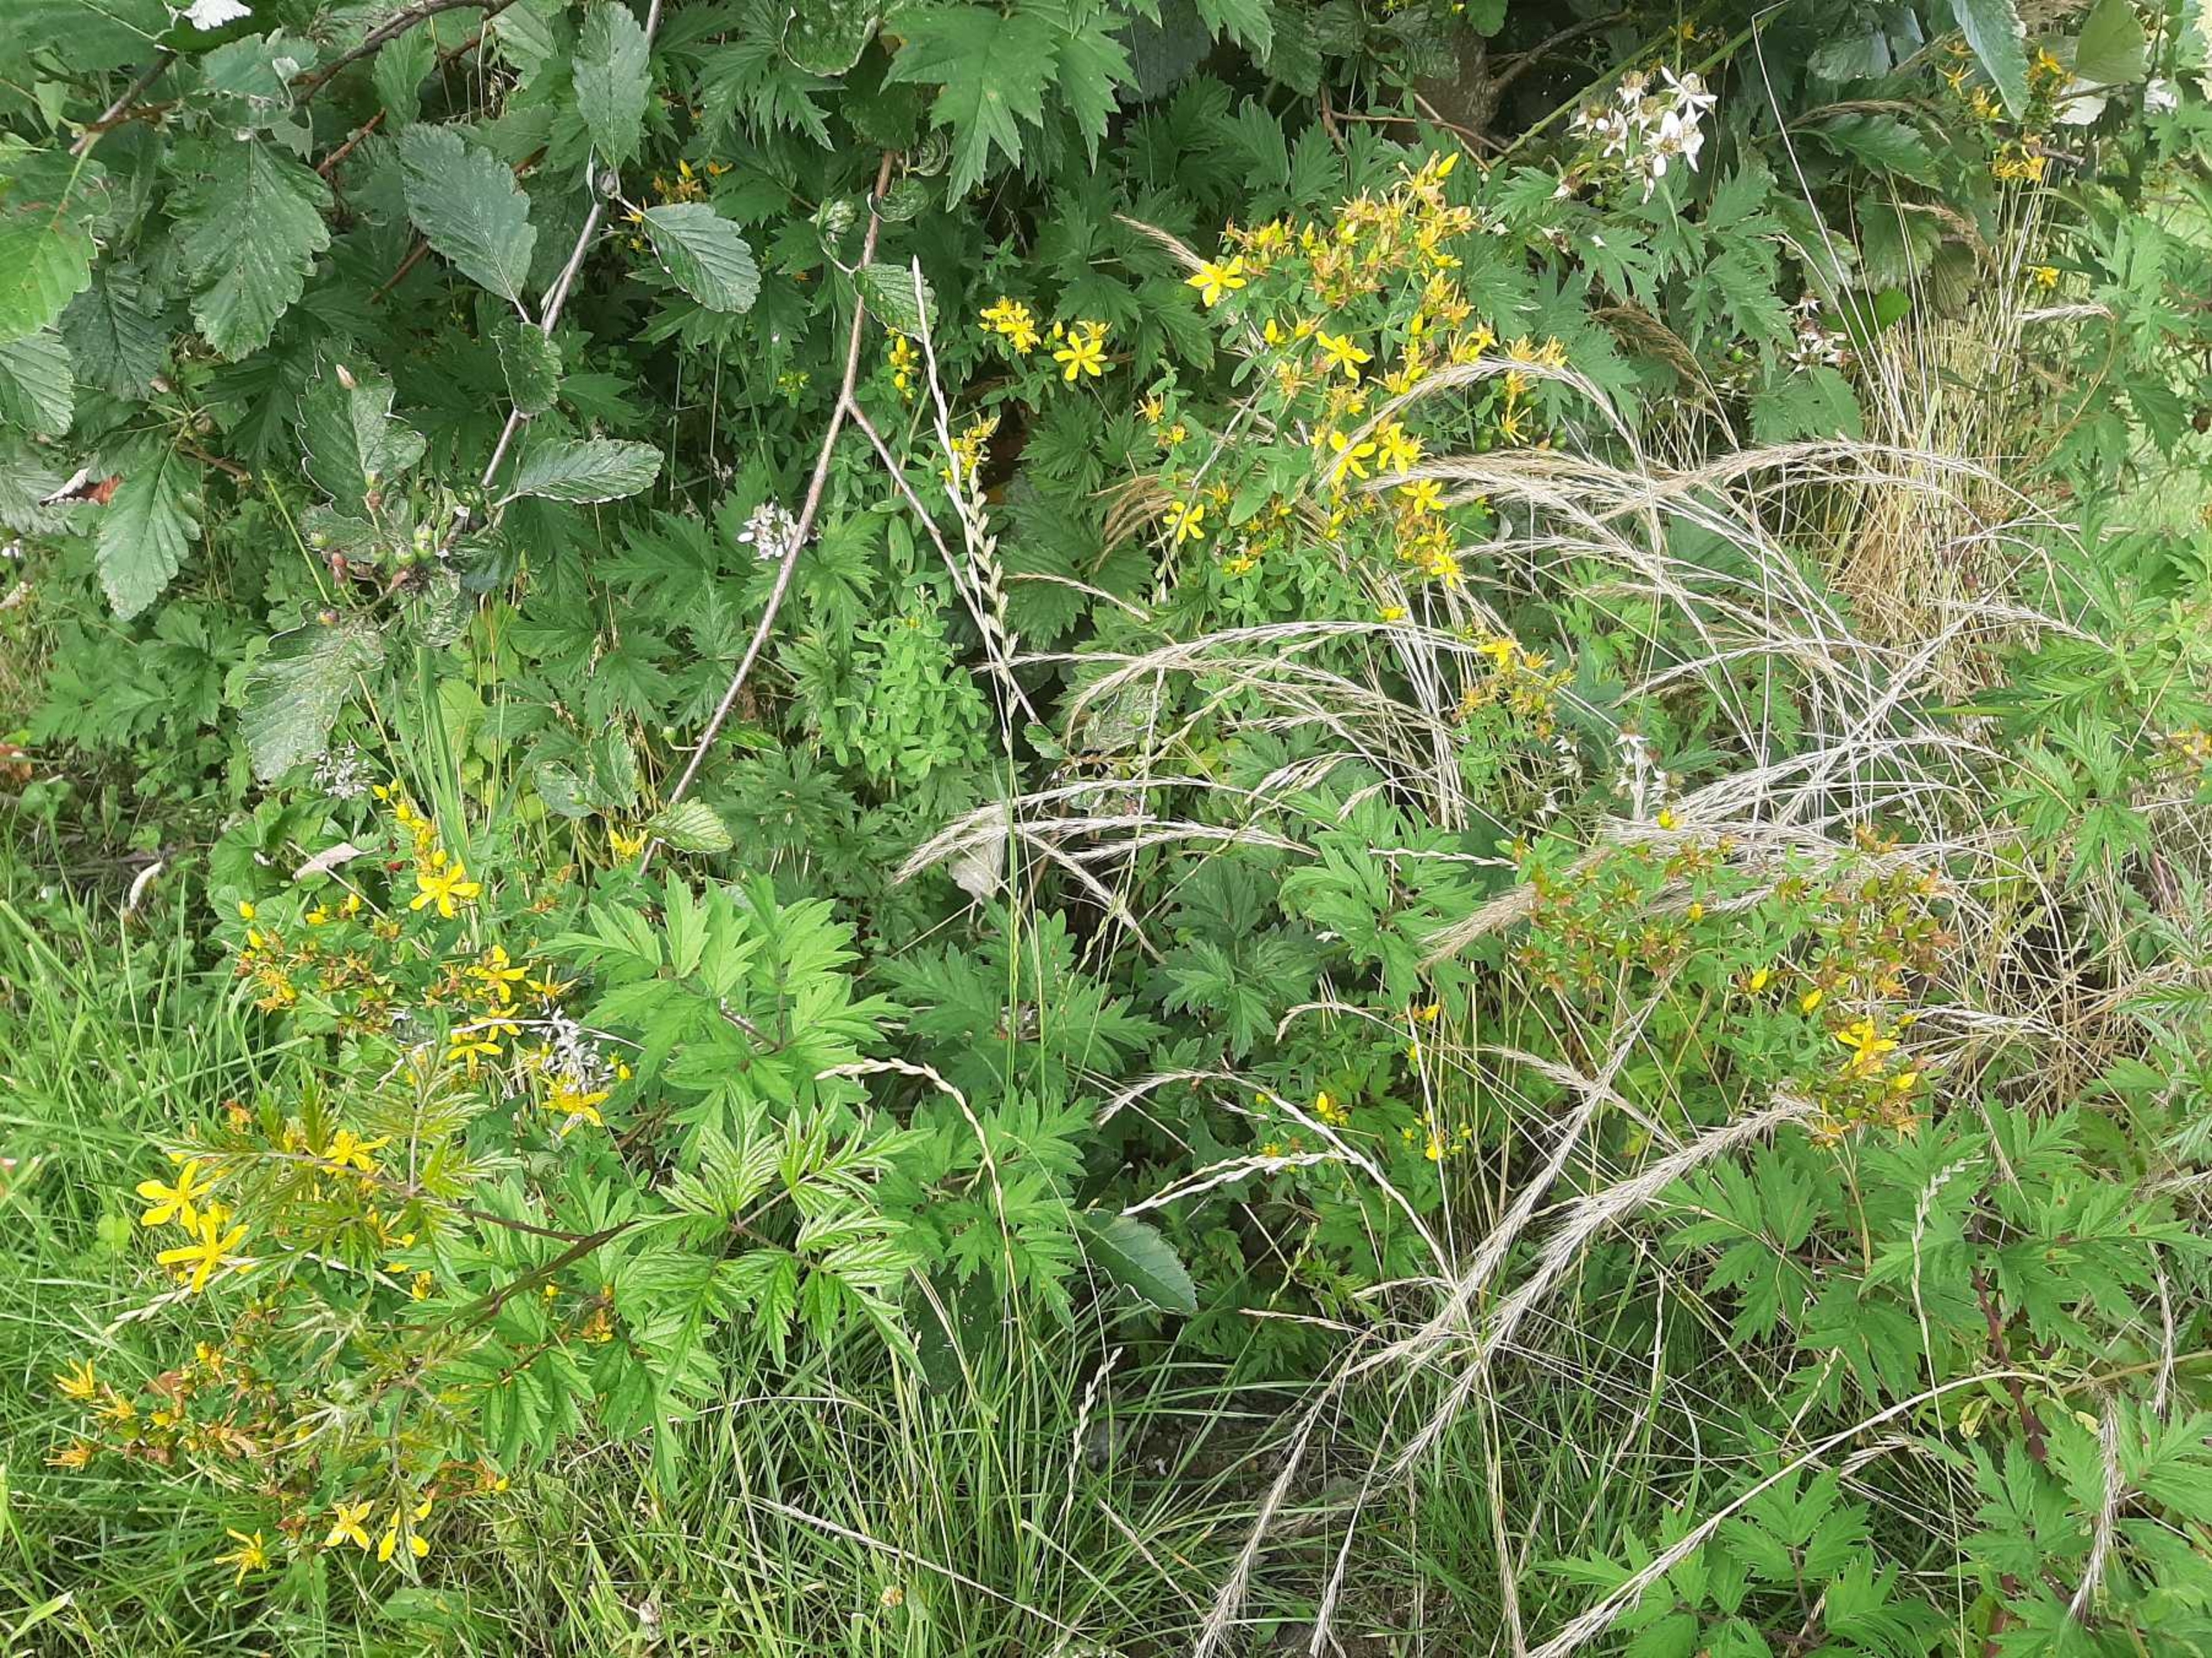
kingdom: Plantae
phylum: Tracheophyta
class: Magnoliopsida
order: Malpighiales
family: Hypericaceae
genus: Hypericum
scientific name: Hypericum perforatum
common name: Prikbladet perikon
